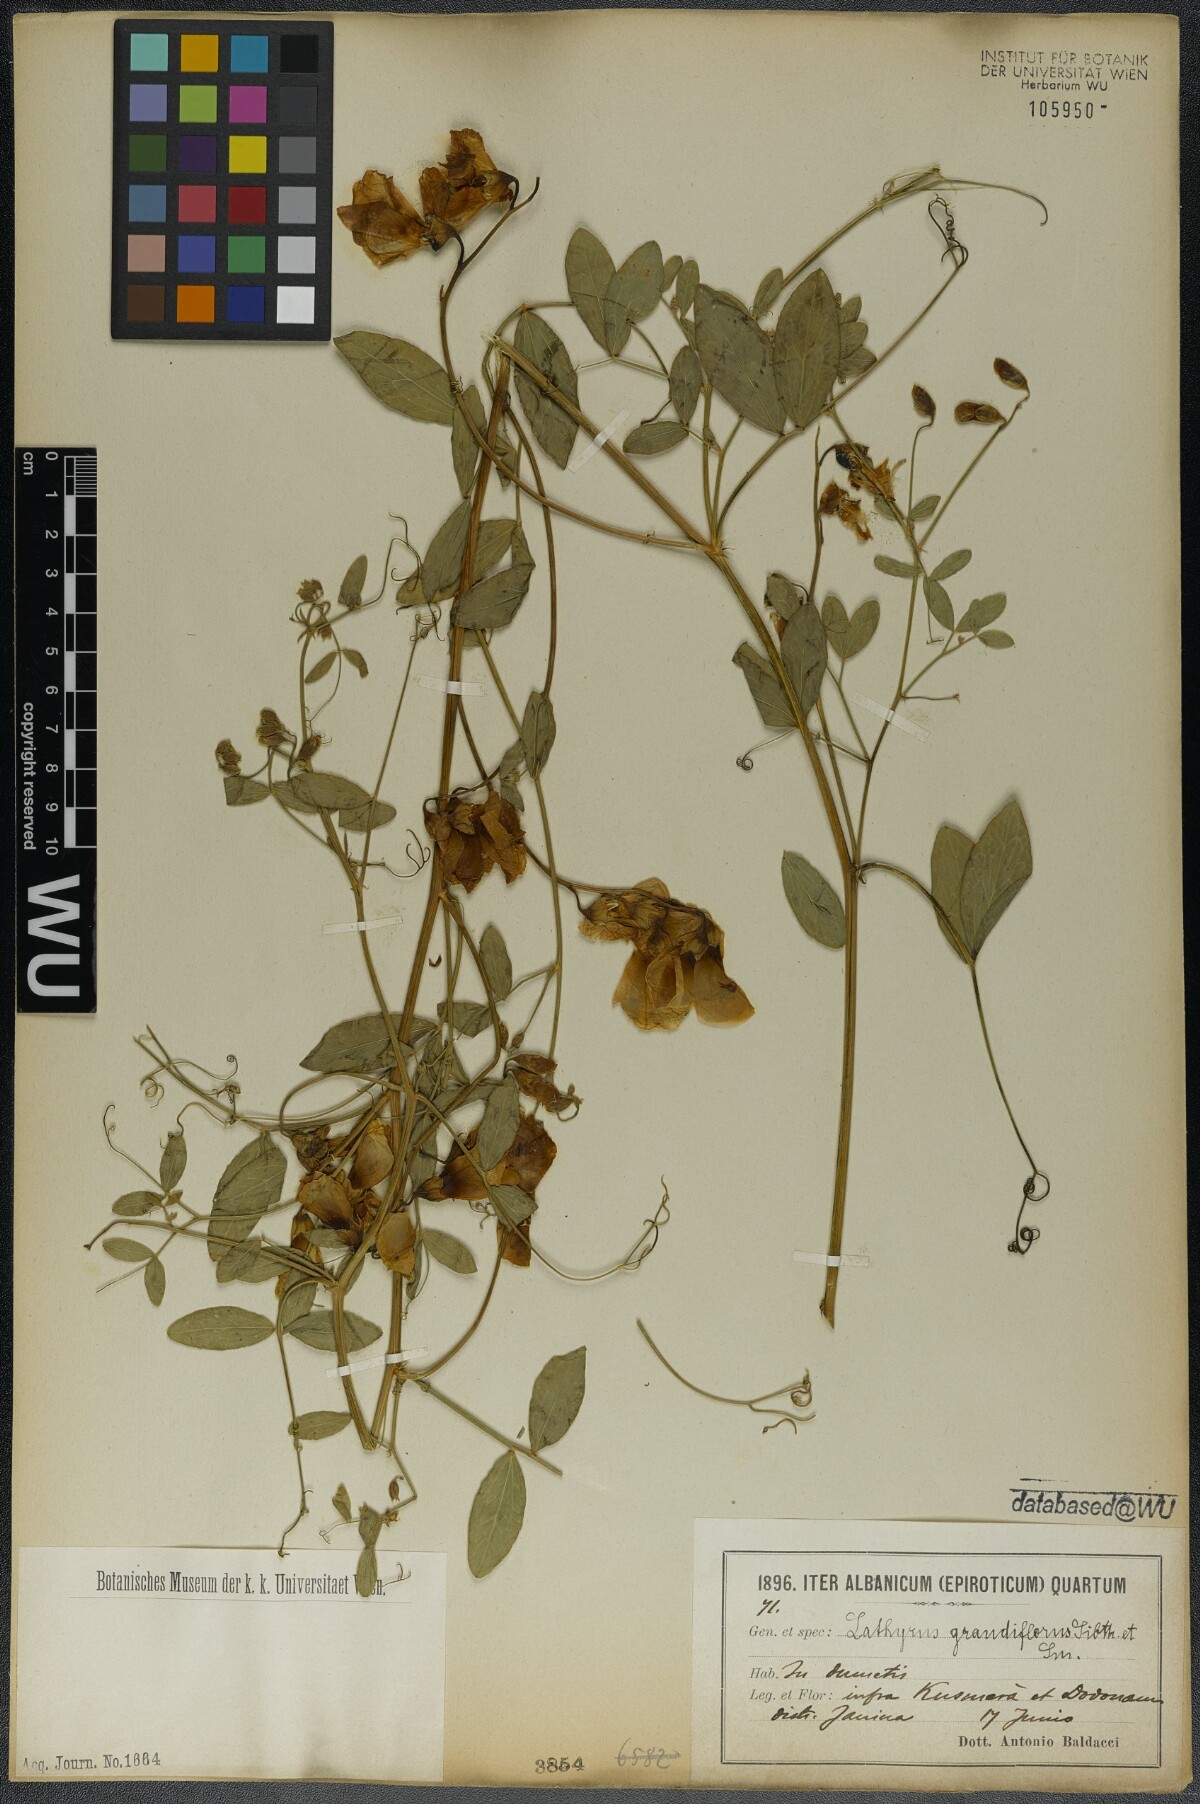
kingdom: Plantae
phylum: Tracheophyta
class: Magnoliopsida
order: Fabales
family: Fabaceae
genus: Lathyrus
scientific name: Lathyrus grandiflorus
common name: Two-flowered everlasting-pea
